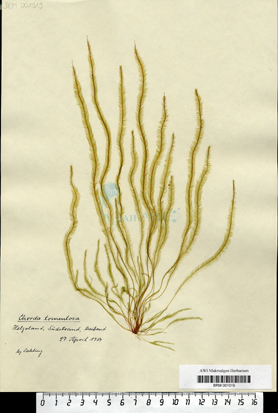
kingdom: Chromista
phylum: Ochrophyta
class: Phaeophyceae
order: Tilopteridales
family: Halosiphonaceae
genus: Halosiphon
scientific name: Halosiphon tomentosus
